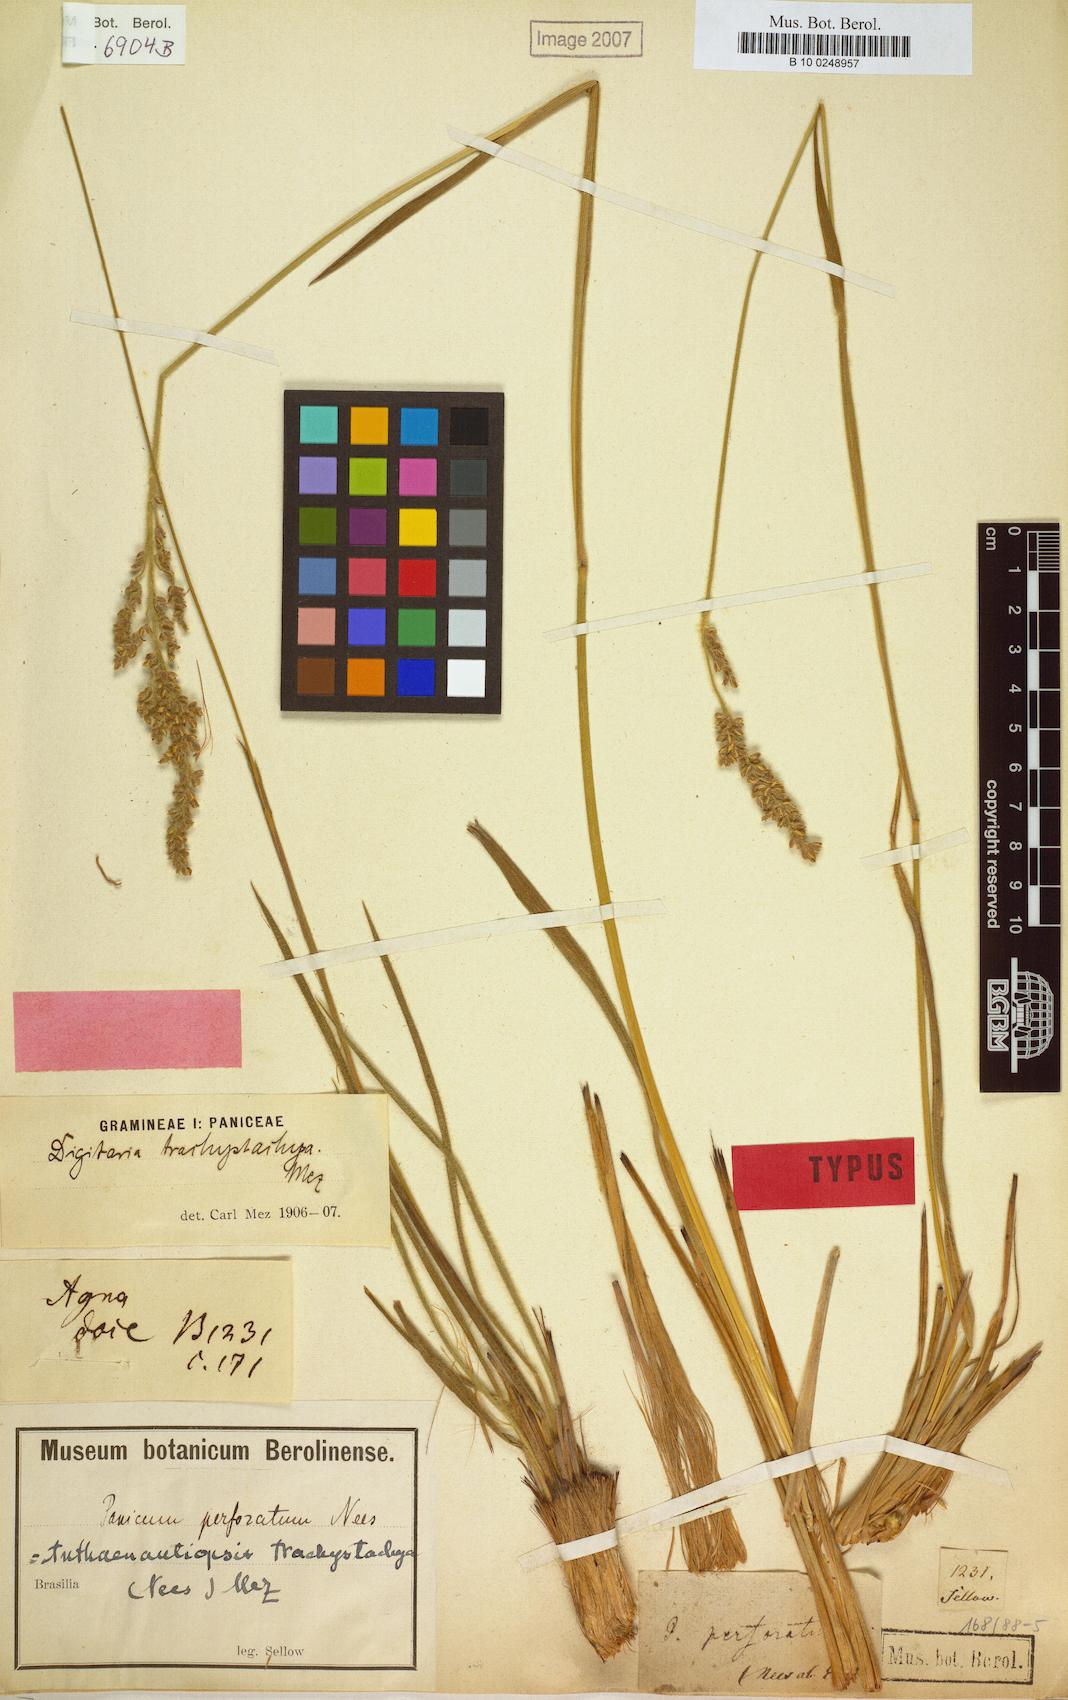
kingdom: Plantae
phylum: Tracheophyta
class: Liliopsida
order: Poales
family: Poaceae
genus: Anthaenantiopsis
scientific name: Anthaenantiopsis perforata
